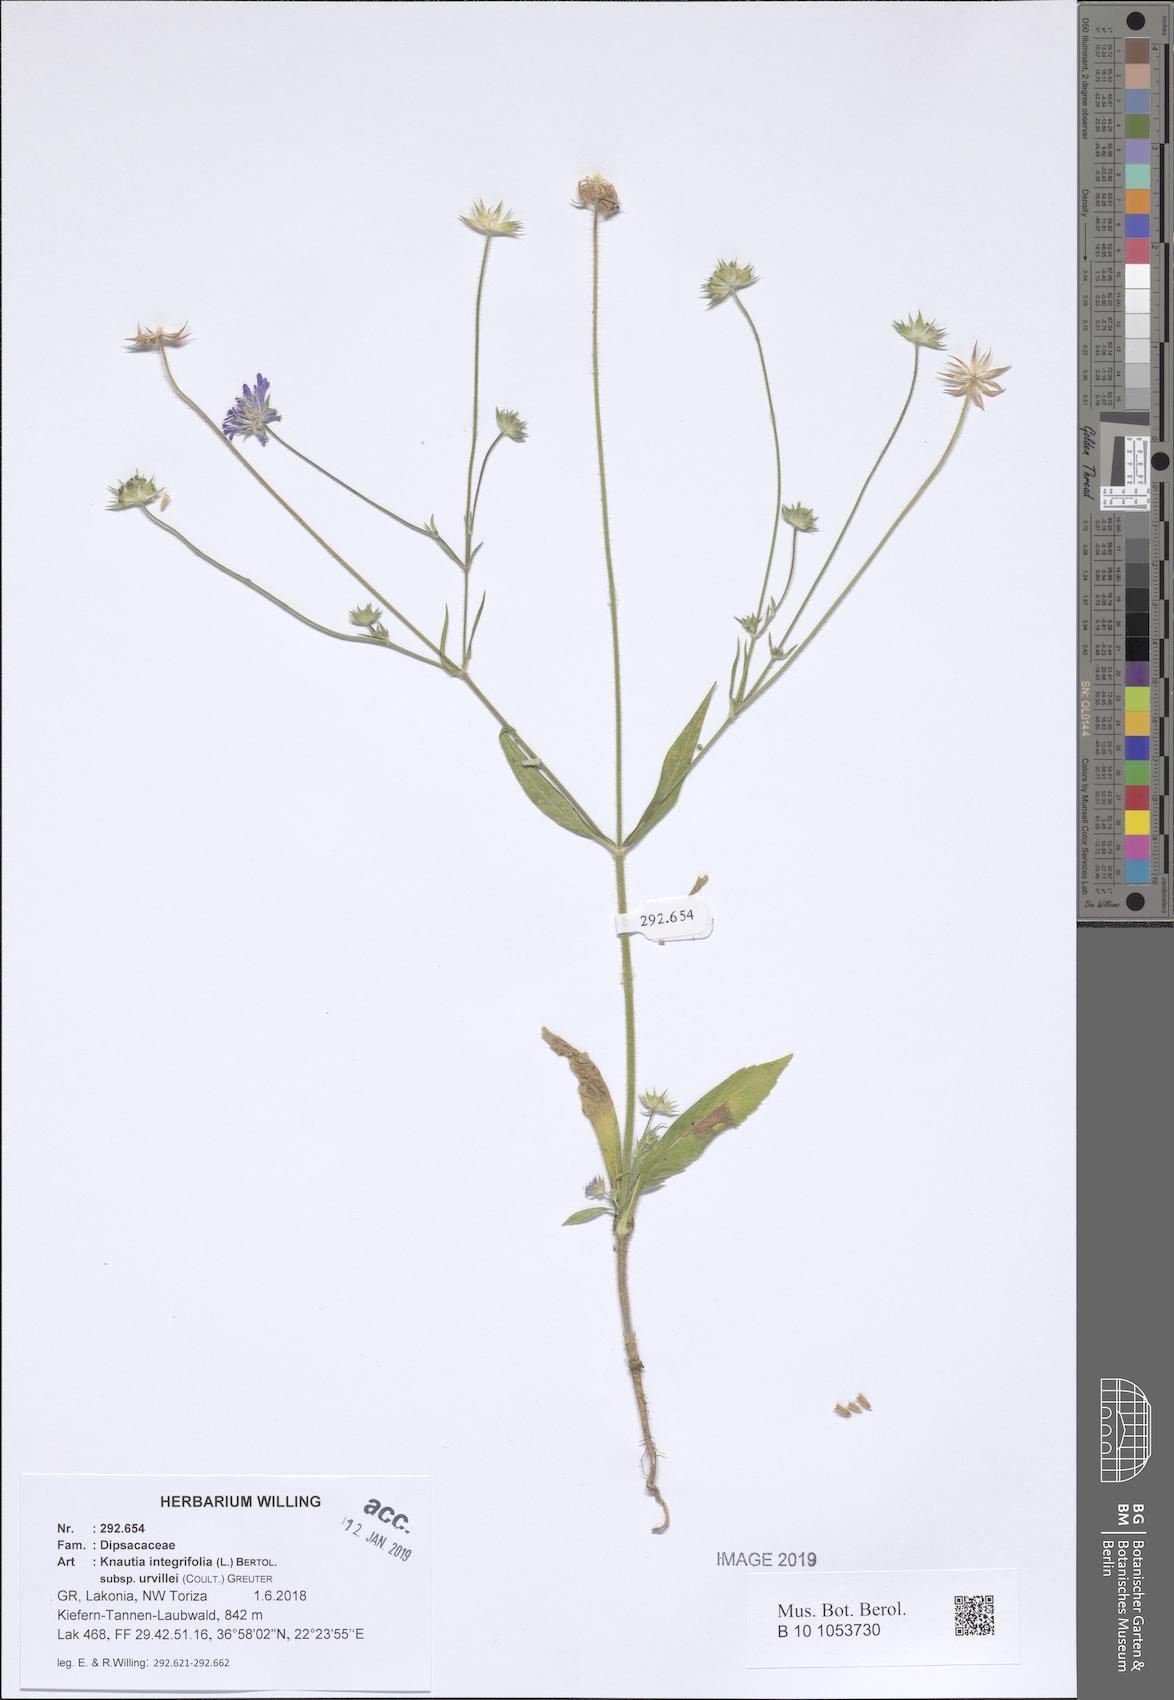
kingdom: Plantae
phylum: Tracheophyta
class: Magnoliopsida
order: Dipsacales
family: Caprifoliaceae
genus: Knautia
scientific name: Knautia integrifolia
